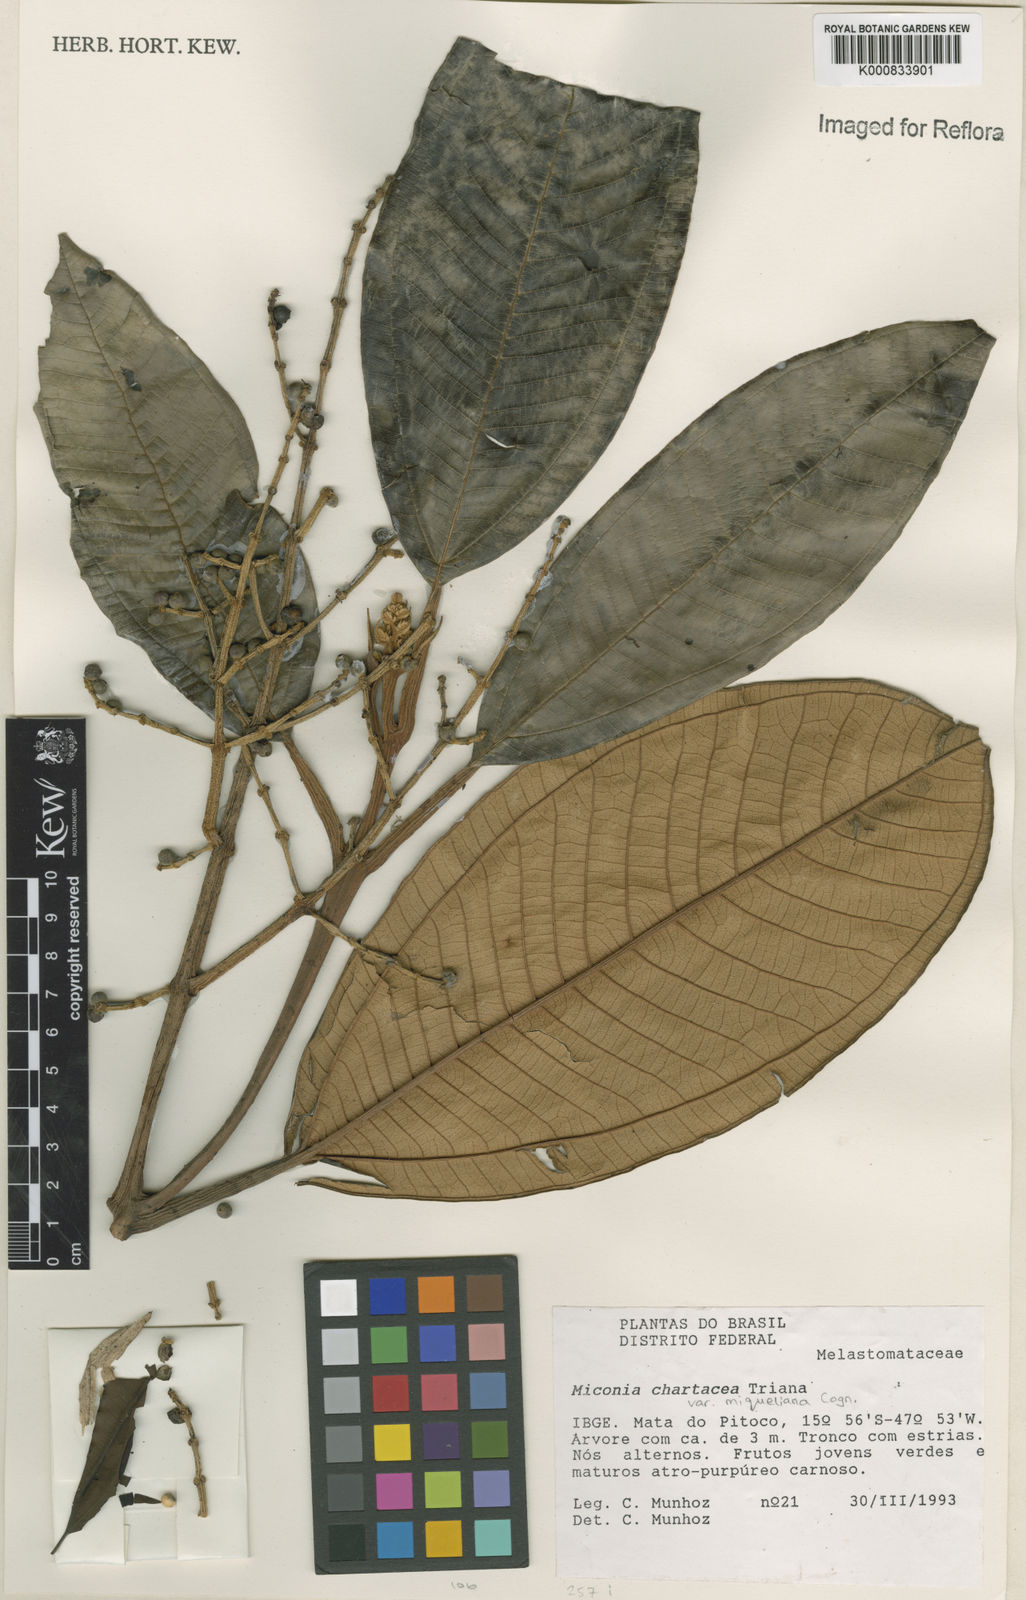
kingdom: Plantae
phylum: Tracheophyta
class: Magnoliopsida
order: Myrtales
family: Melastomataceae
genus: Miconia
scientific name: Miconia chartacea
